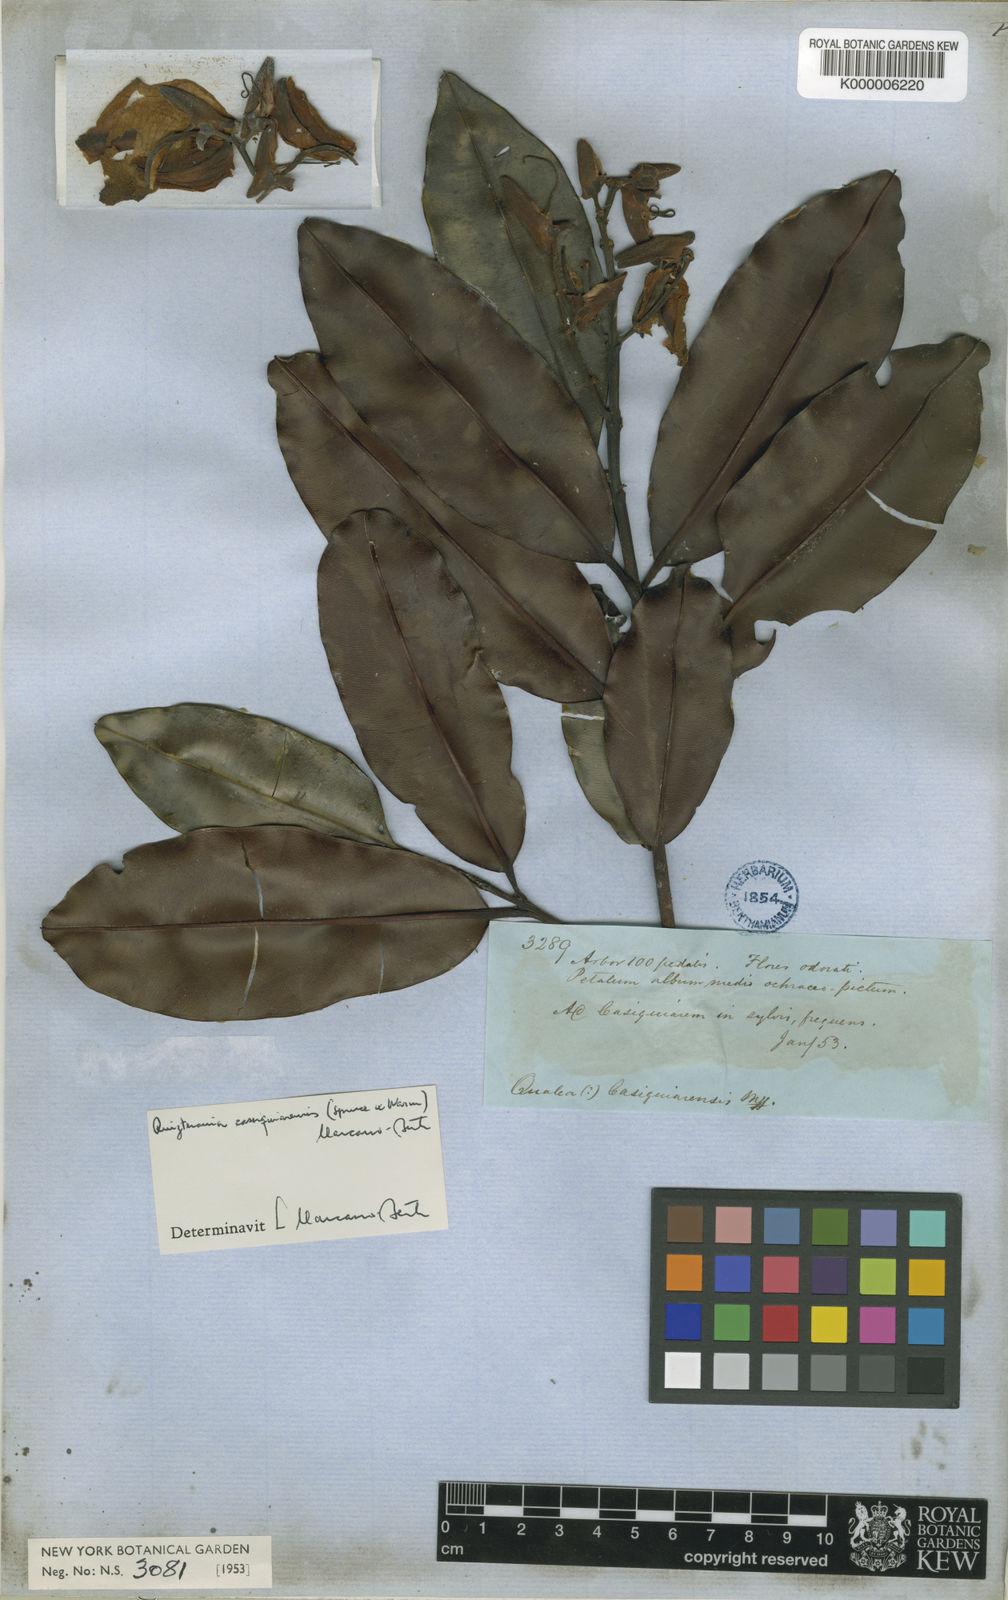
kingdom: Plantae
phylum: Tracheophyta
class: Magnoliopsida
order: Myrtales
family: Vochysiaceae
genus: Ruizterania
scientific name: Ruizterania cassiquiarensis
